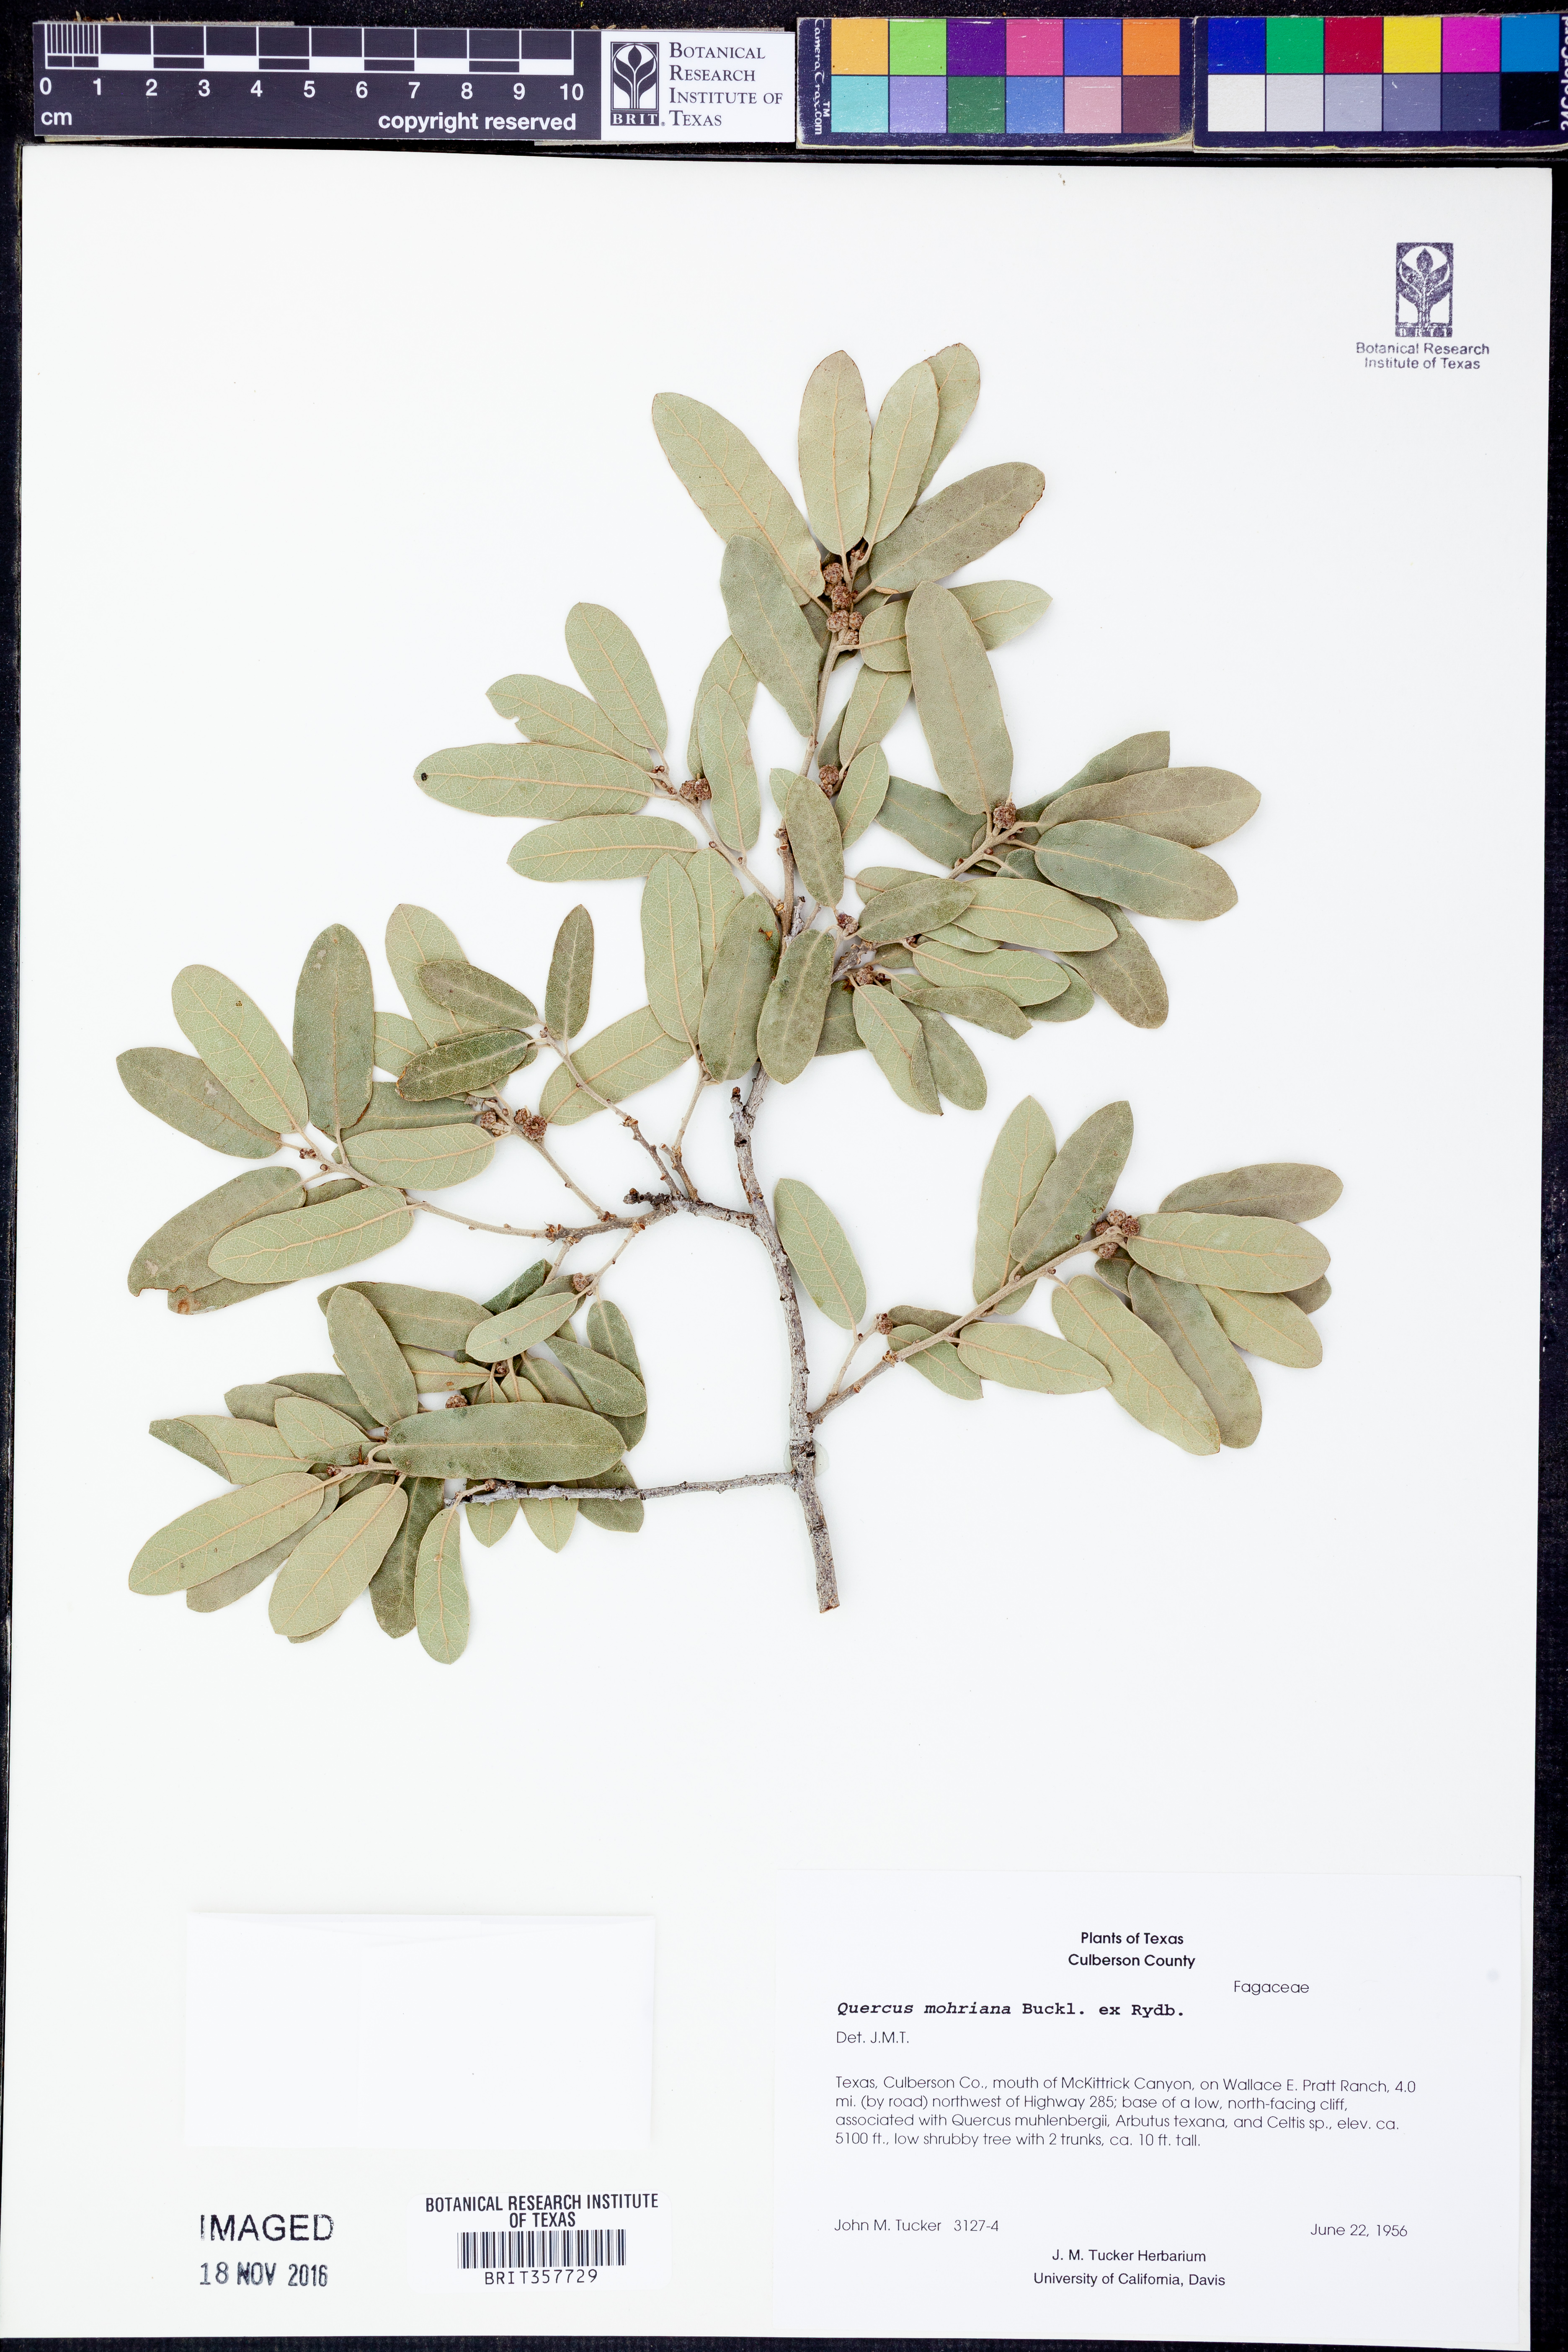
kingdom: Plantae
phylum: Tracheophyta
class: Magnoliopsida
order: Fagales
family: Fagaceae
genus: Quercus
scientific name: Quercus mohriana
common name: Mohr oak
